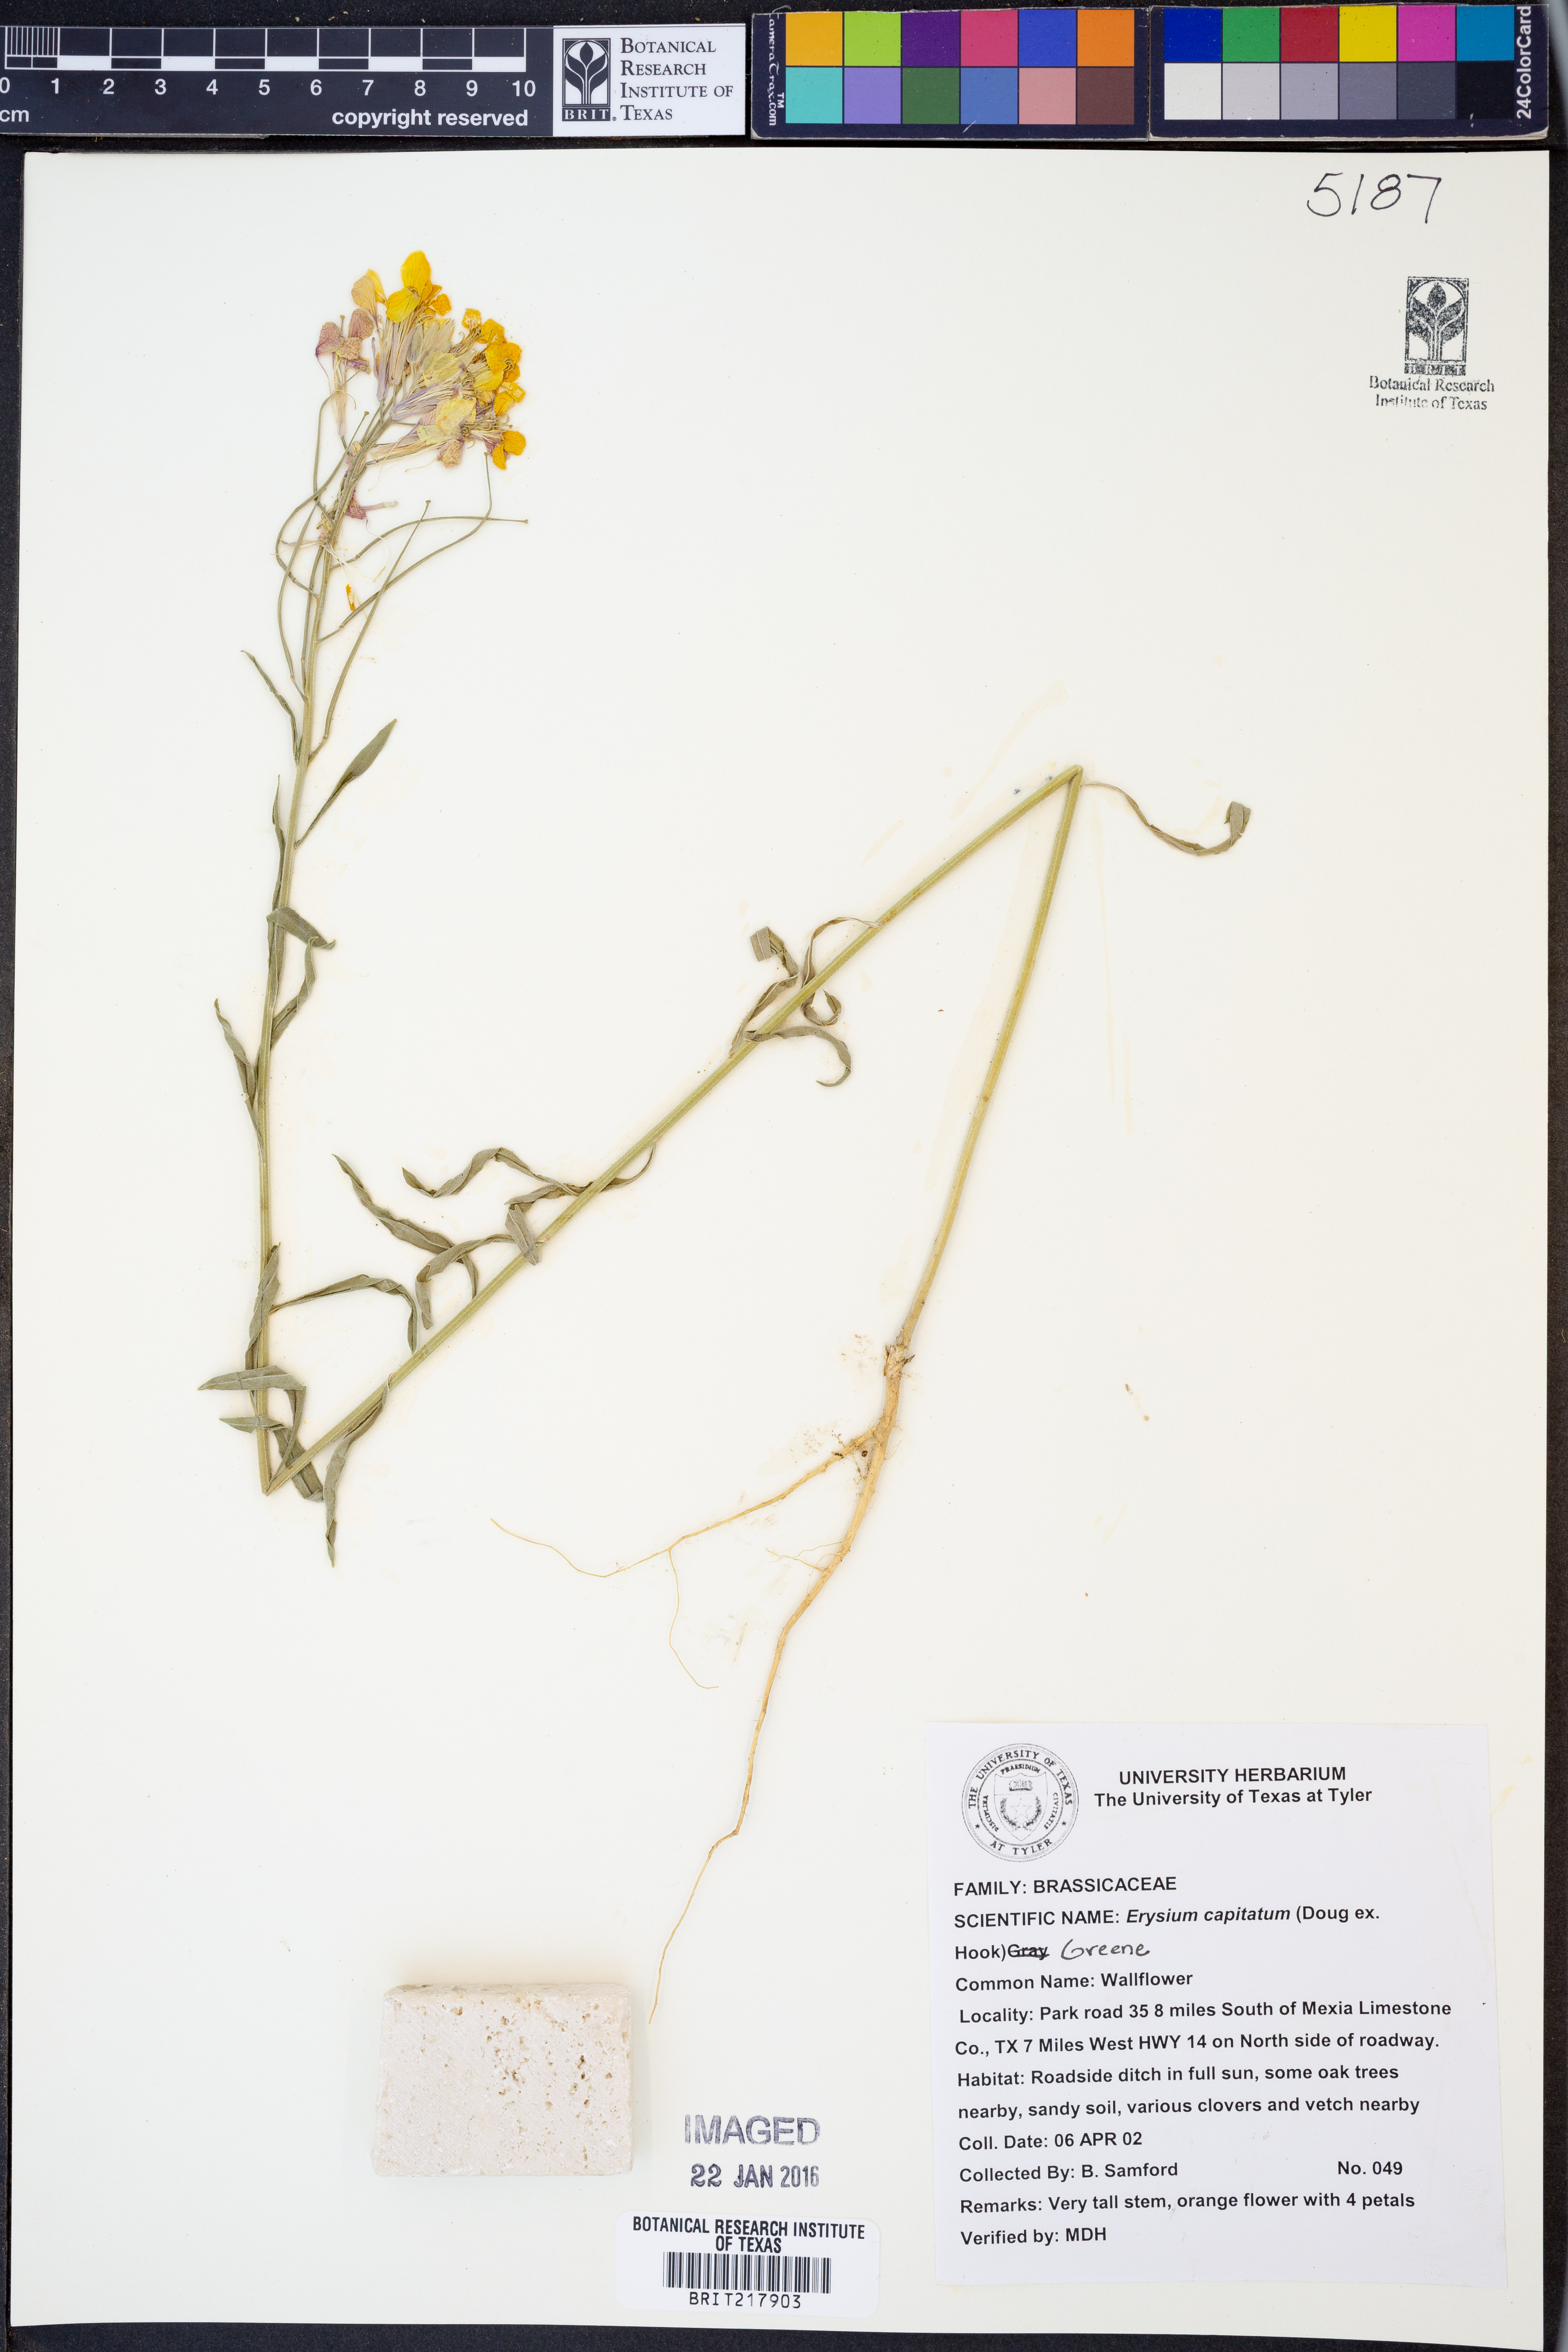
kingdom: Plantae
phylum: Tracheophyta
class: Magnoliopsida
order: Brassicales
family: Brassicaceae
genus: Erysimum
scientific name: Erysimum capitatum
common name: Western wallflower
